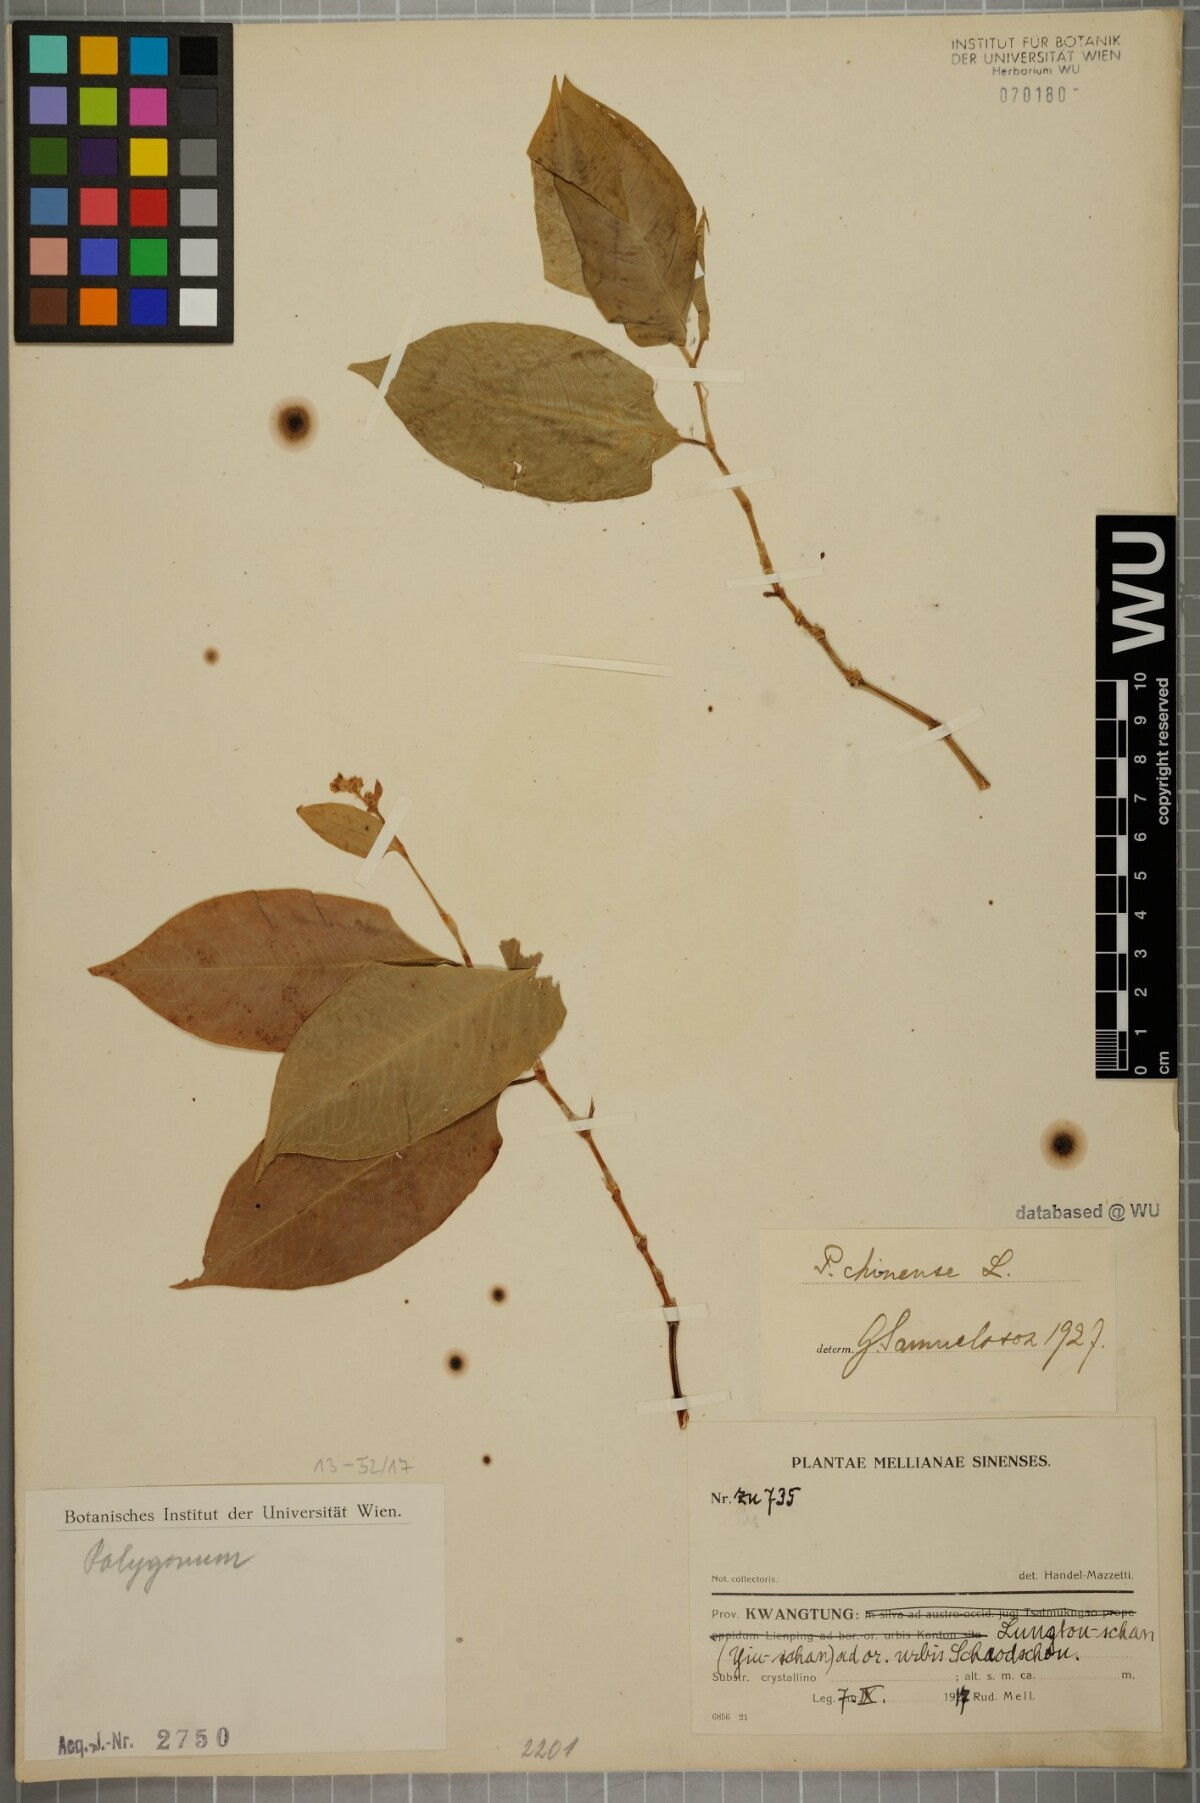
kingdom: Plantae
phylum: Tracheophyta
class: Magnoliopsida
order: Caryophyllales
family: Polygonaceae
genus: Persicaria
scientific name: Persicaria chinensis
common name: Chinese knotweed
